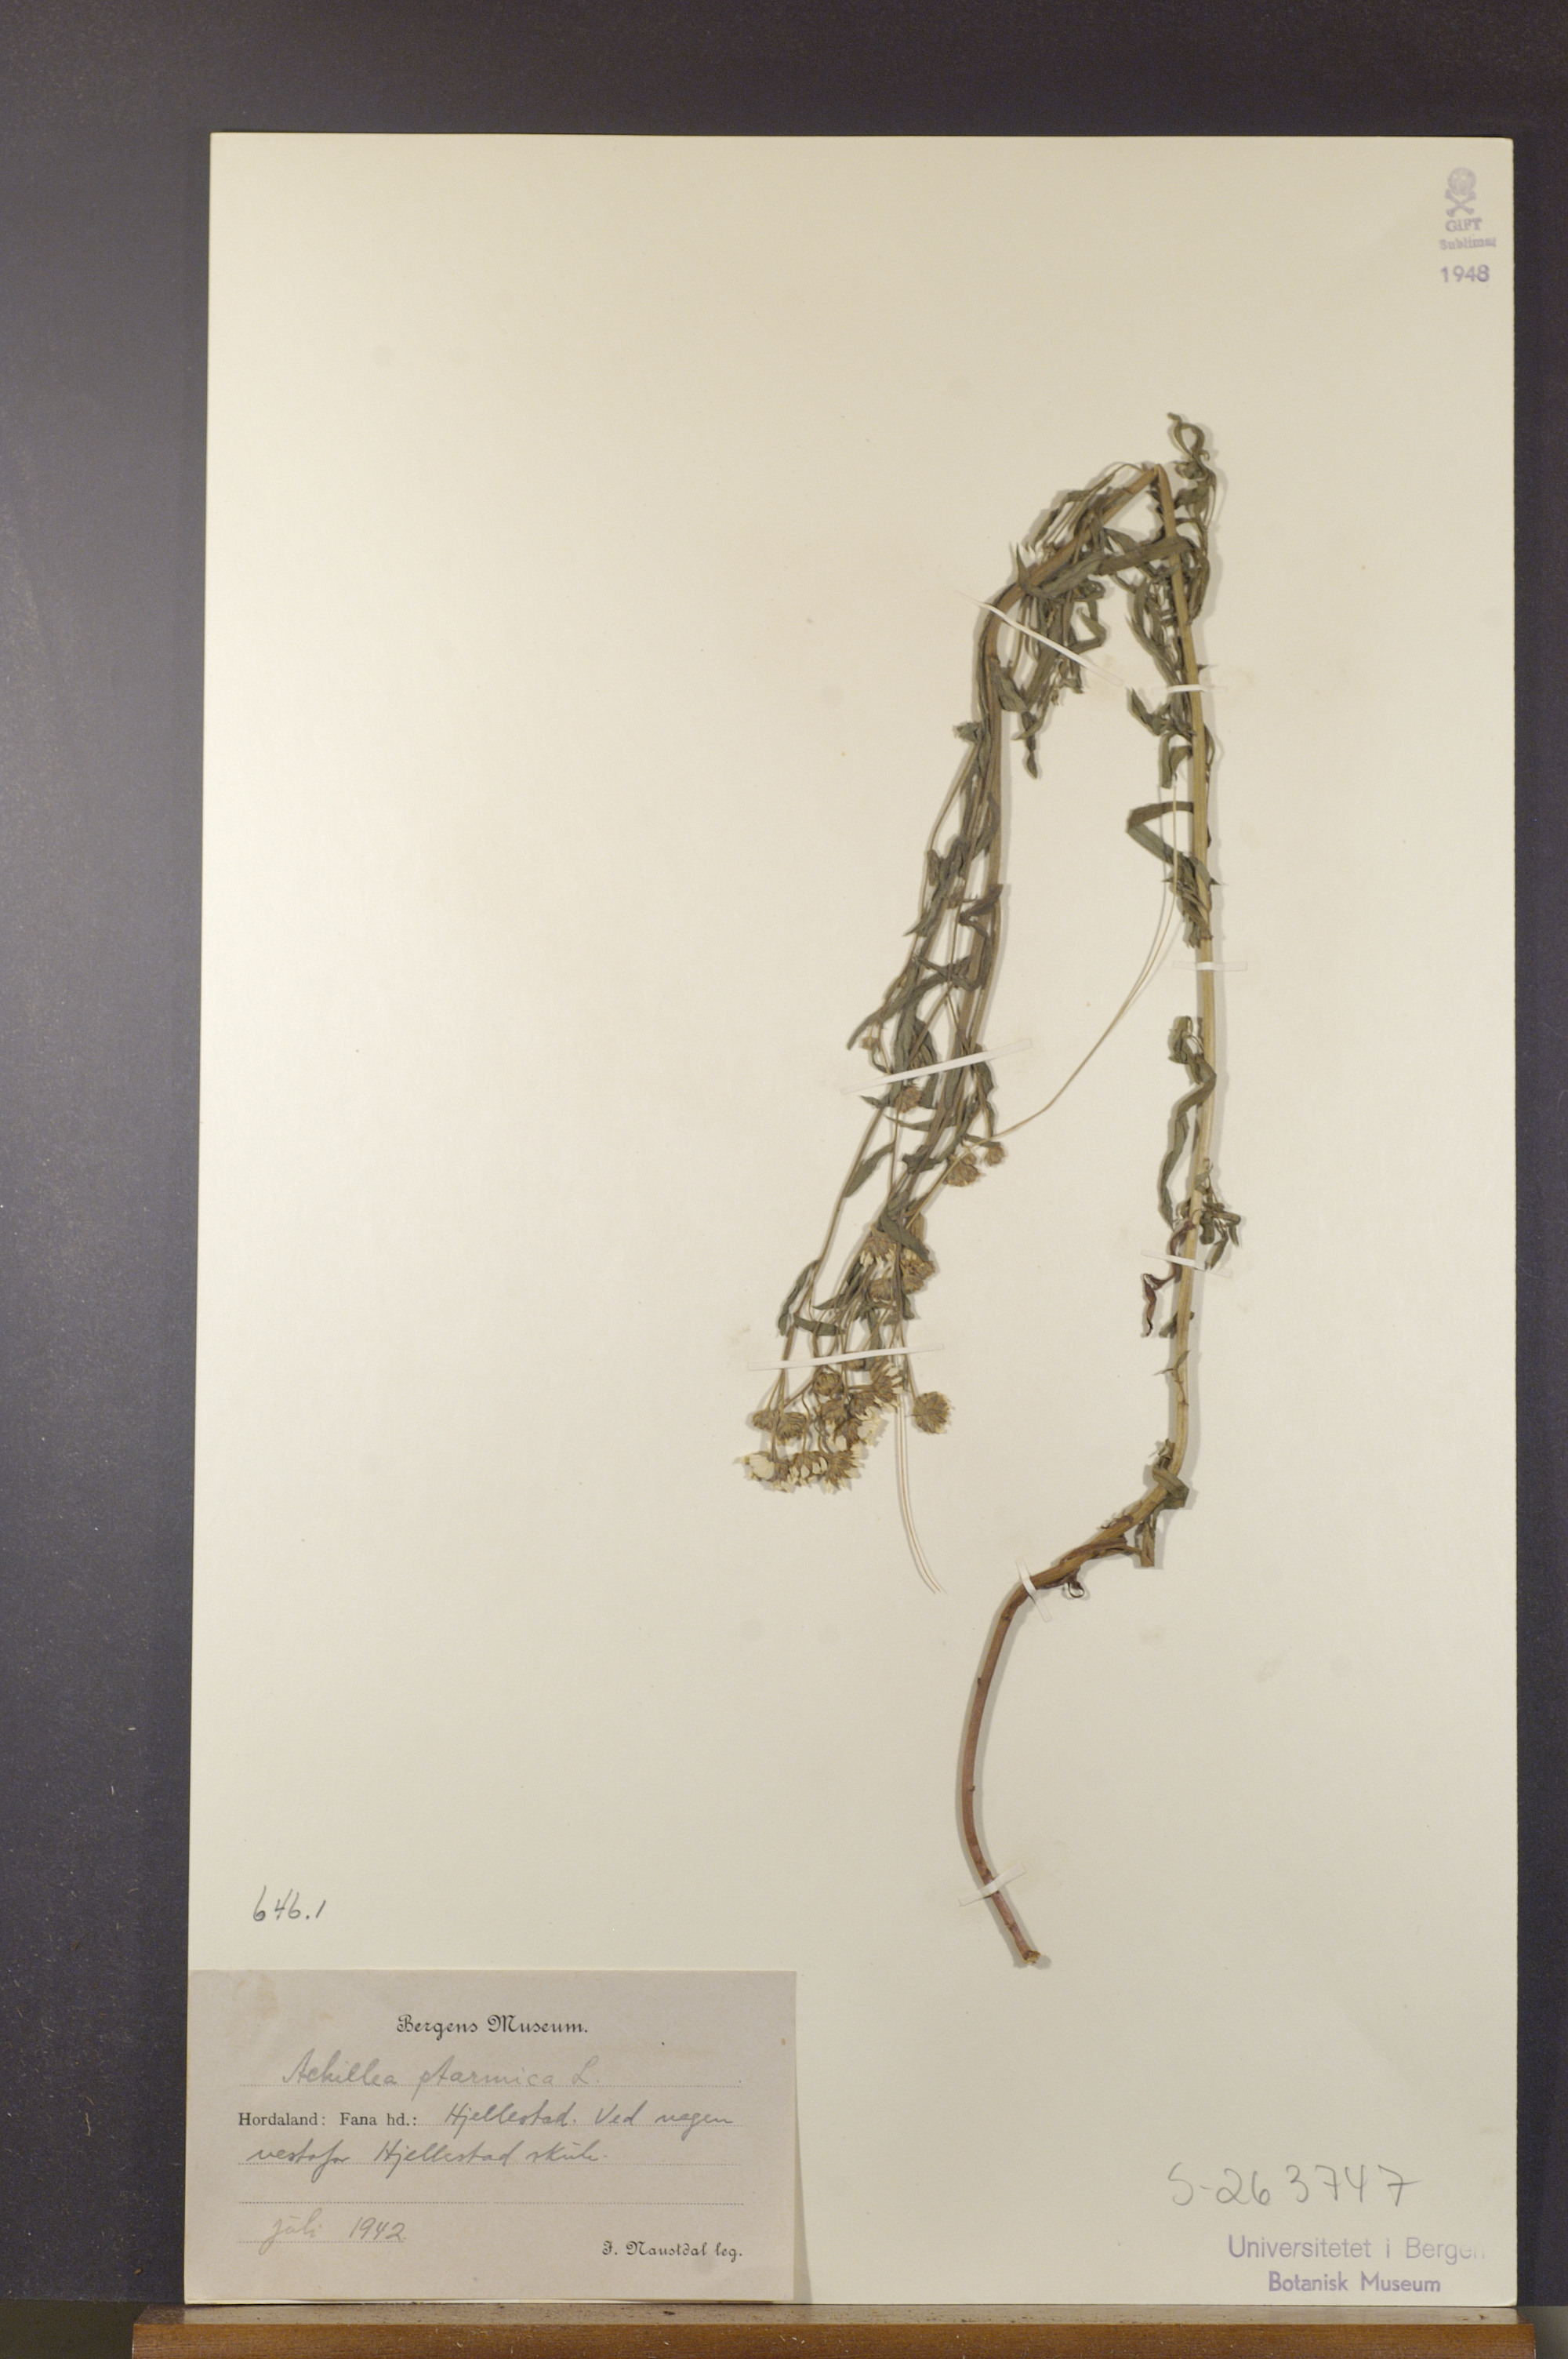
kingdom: Plantae
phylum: Tracheophyta
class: Magnoliopsida
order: Asterales
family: Asteraceae
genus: Achillea
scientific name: Achillea ptarmica
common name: Sneezeweed
